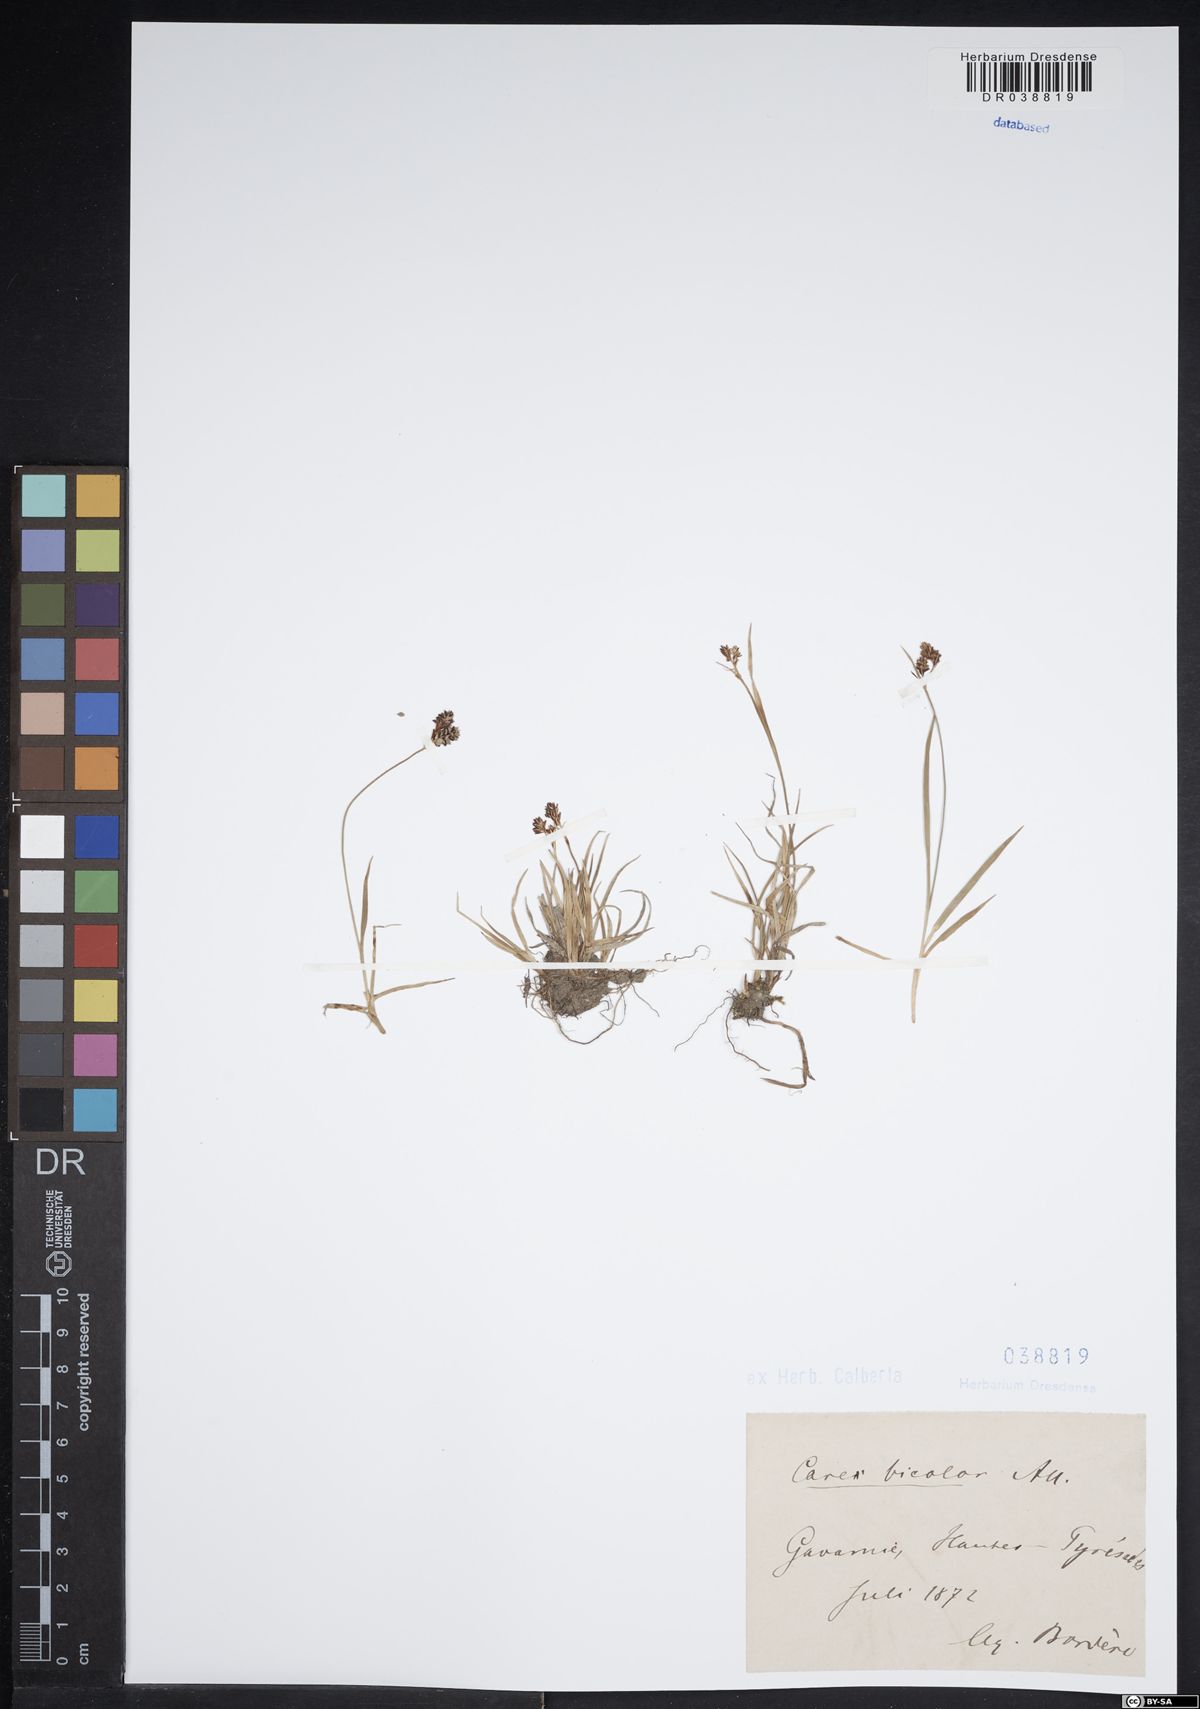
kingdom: Plantae
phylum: Tracheophyta
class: Liliopsida
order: Poales
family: Cyperaceae
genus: Carex
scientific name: Carex bicolor
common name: Bicoloured sedge
